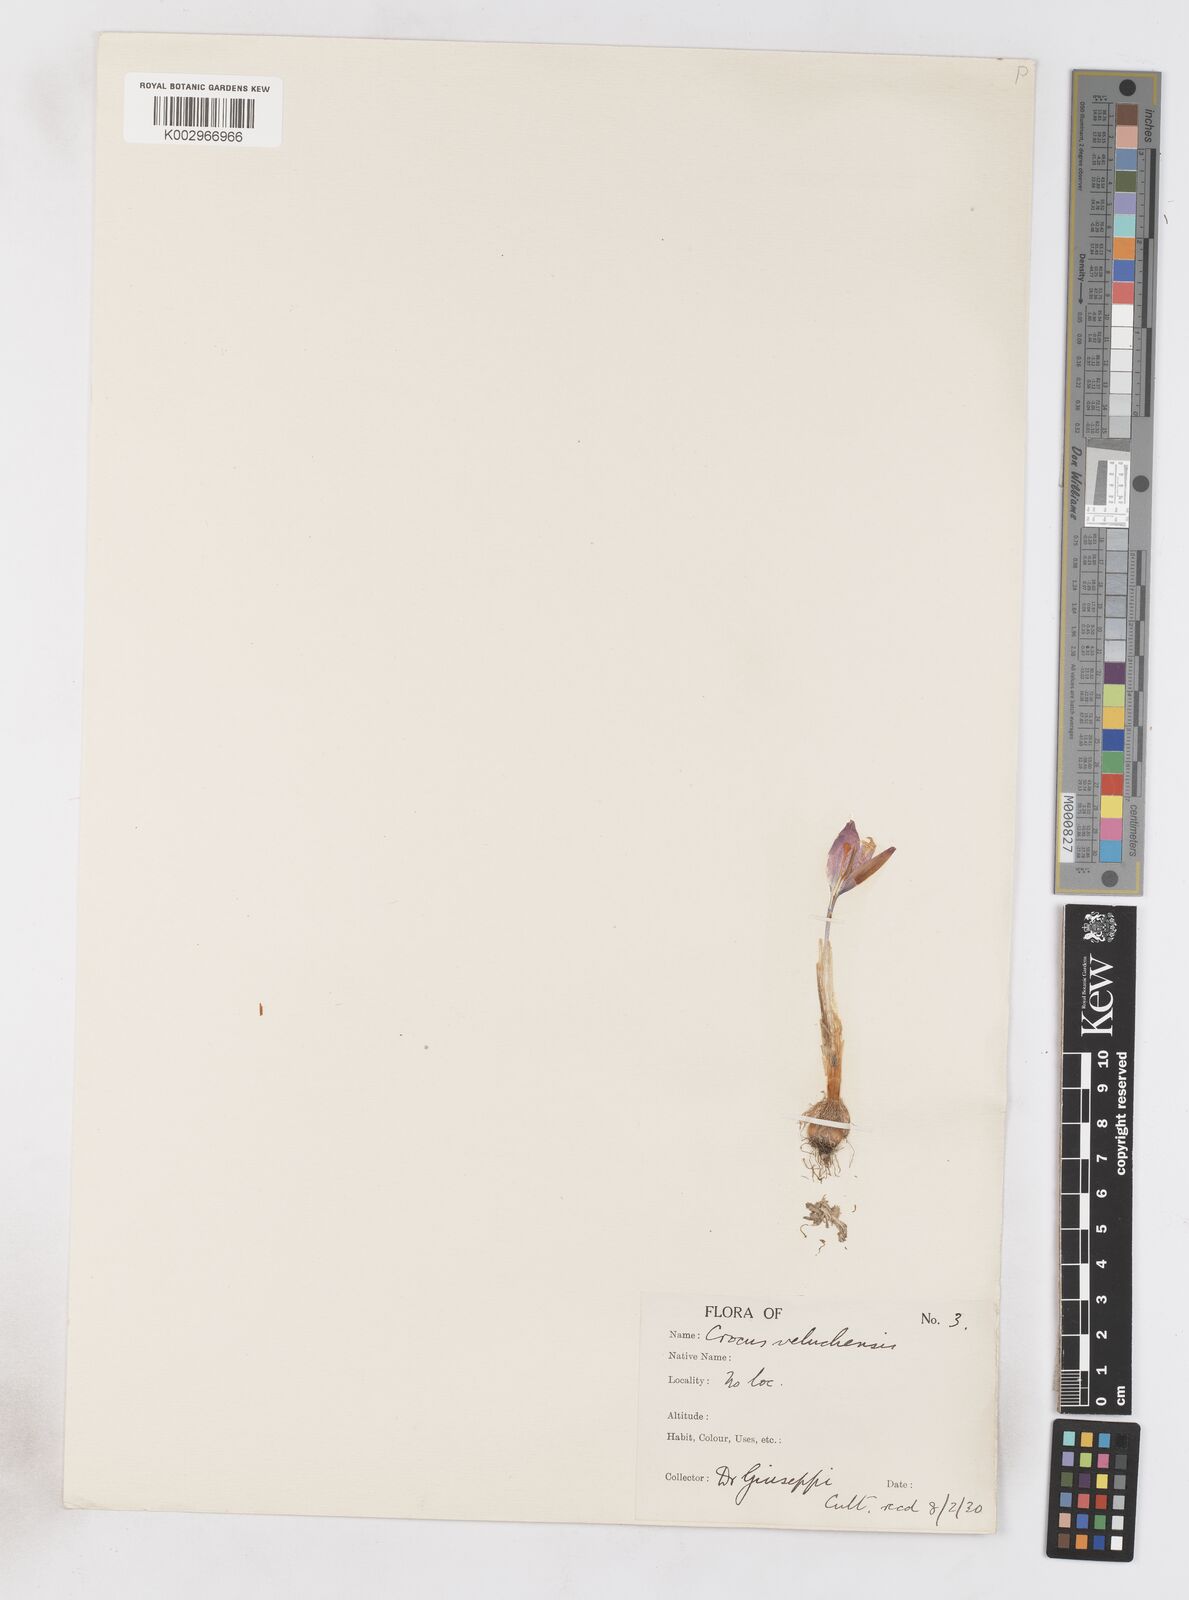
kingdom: Plantae
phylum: Tracheophyta
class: Liliopsida
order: Asparagales
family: Iridaceae
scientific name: Iridaceae
